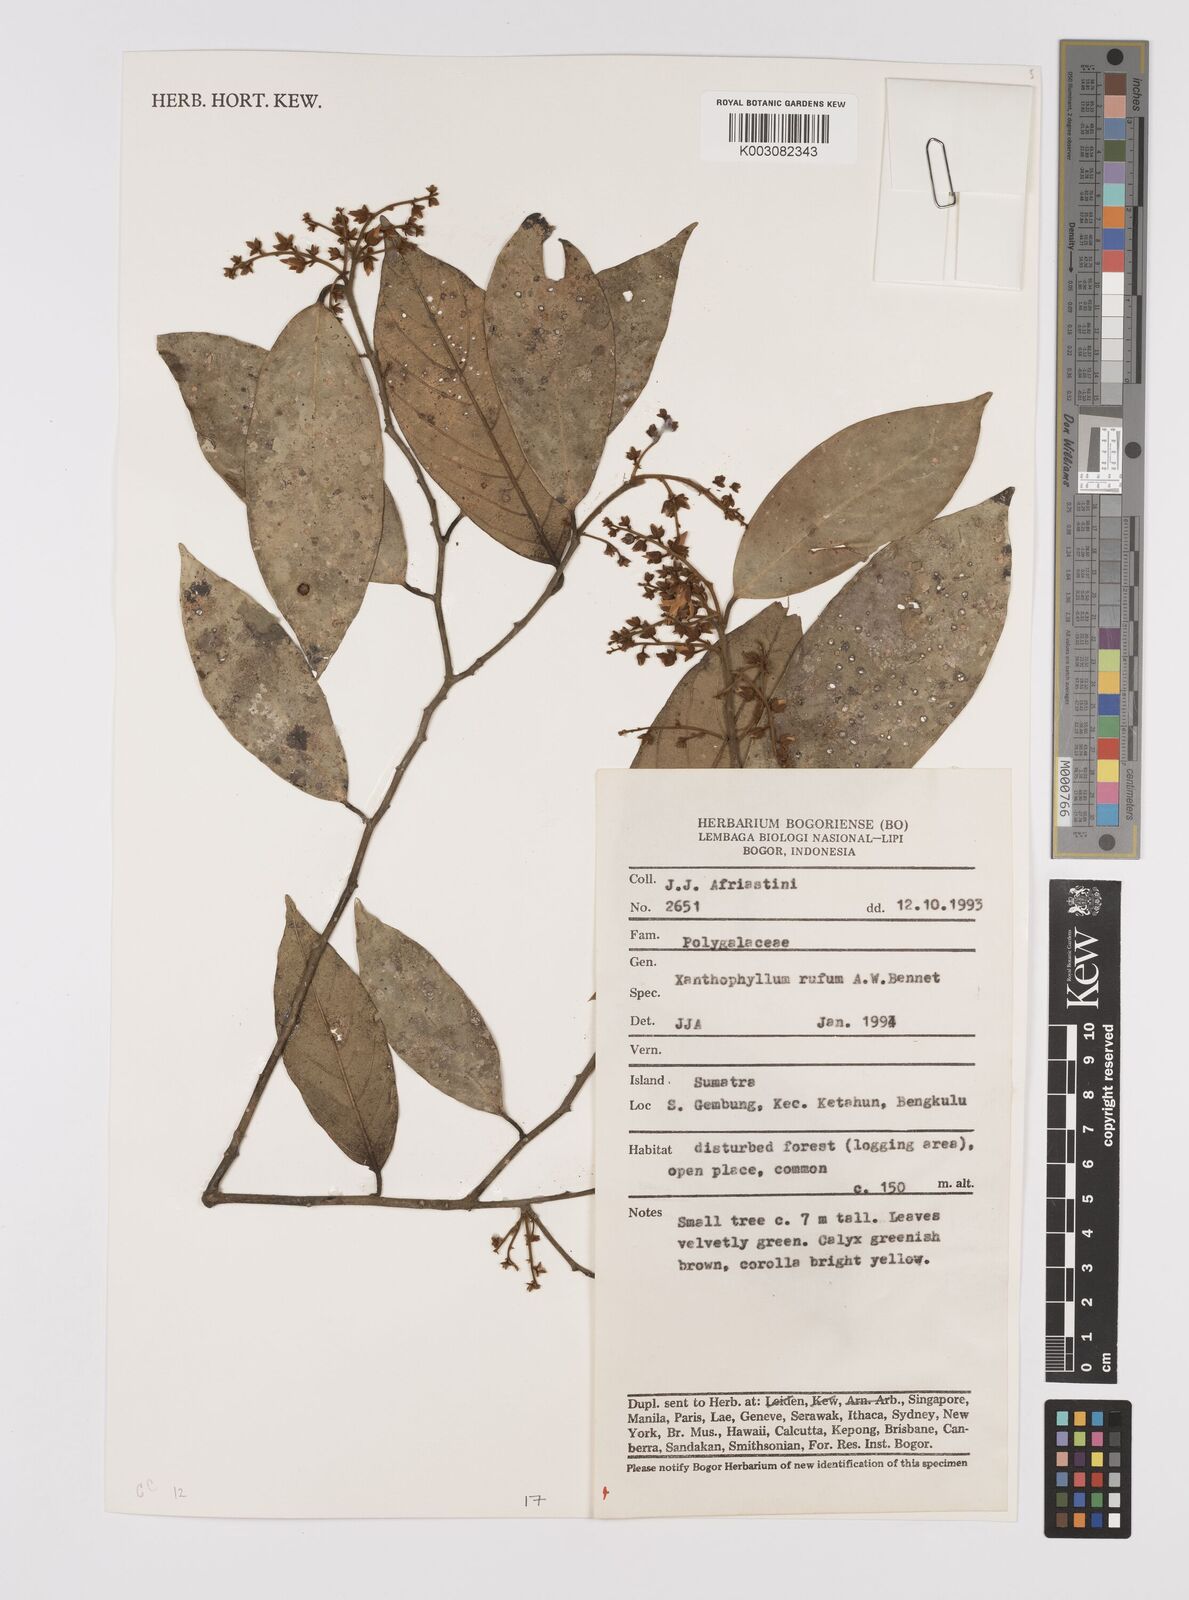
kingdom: Plantae
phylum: Tracheophyta
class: Magnoliopsida
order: Fabales
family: Polygalaceae
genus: Xanthophyllum
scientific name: Xanthophyllum rufum
